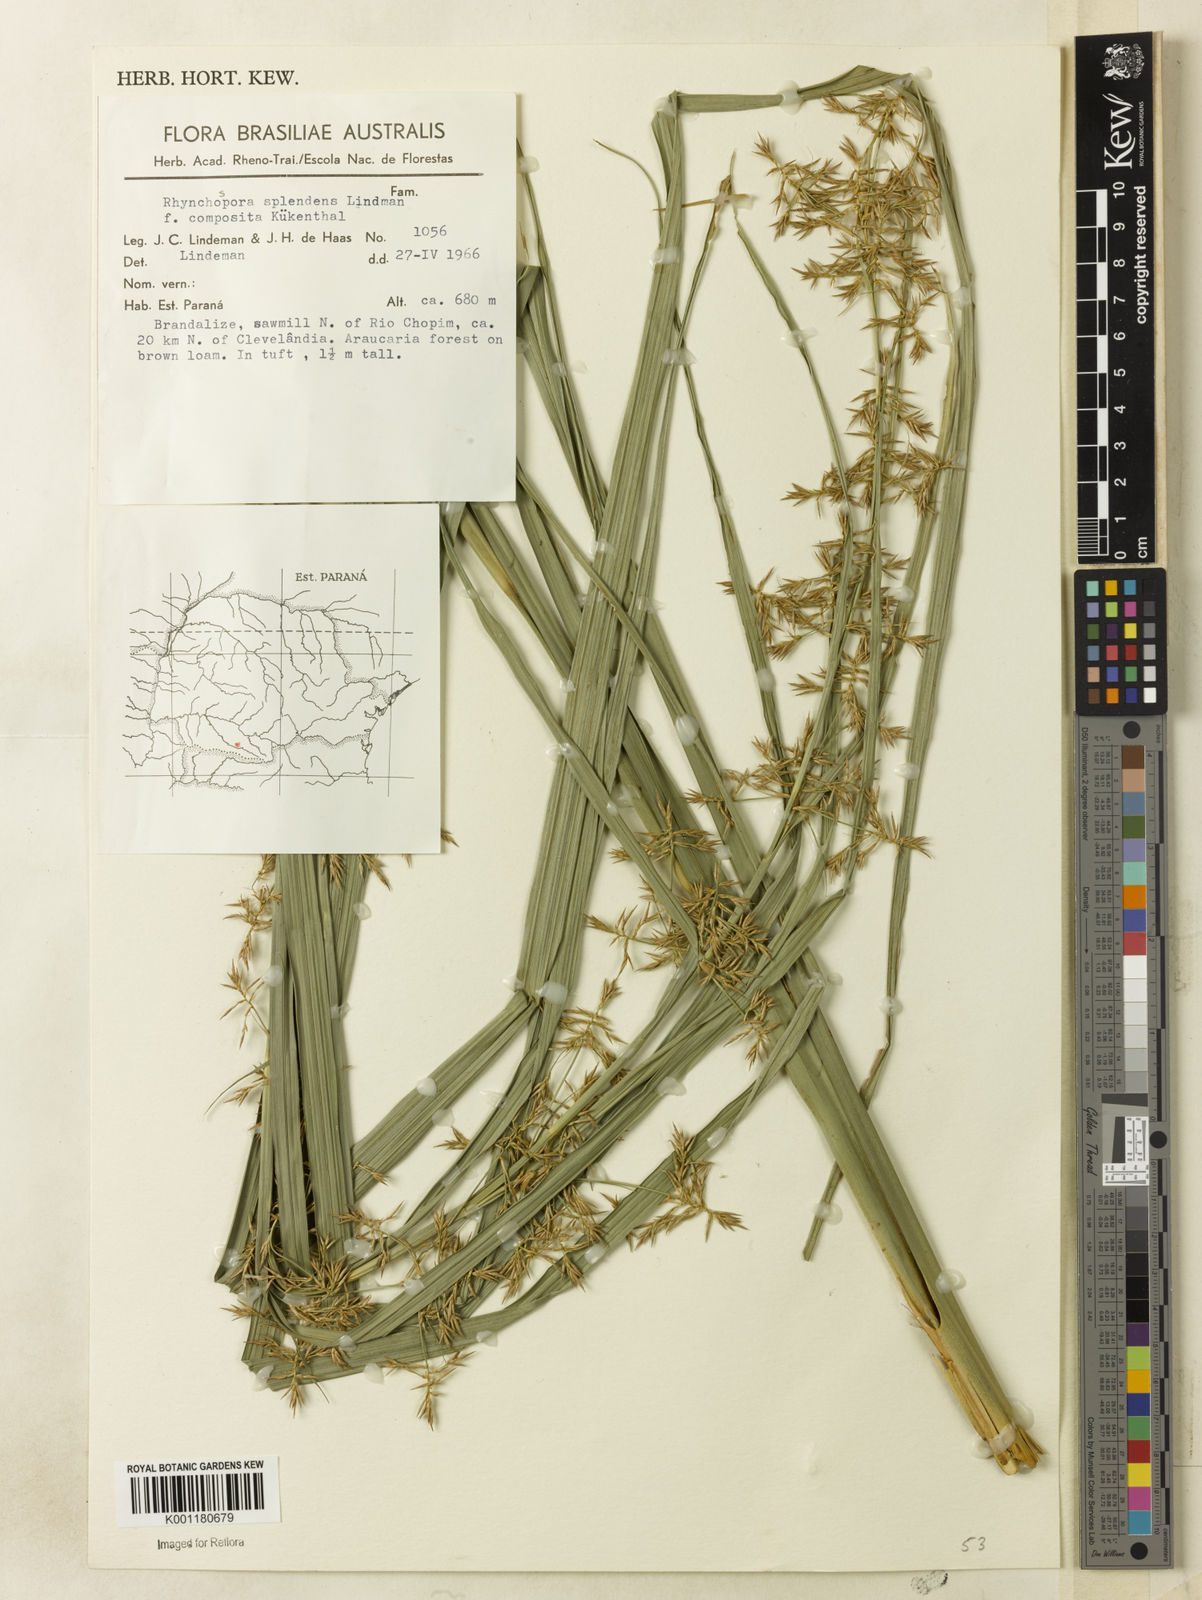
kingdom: Plantae
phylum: Tracheophyta
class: Liliopsida
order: Poales
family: Cyperaceae
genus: Rhynchospora
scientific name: Rhynchospora splendens
